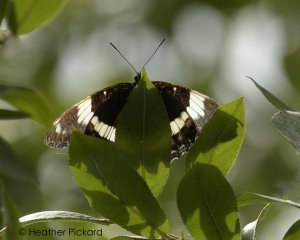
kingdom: Animalia
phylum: Arthropoda
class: Insecta
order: Lepidoptera
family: Nymphalidae
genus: Limenitis
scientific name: Limenitis arthemis
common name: Red-spotted Admiral
